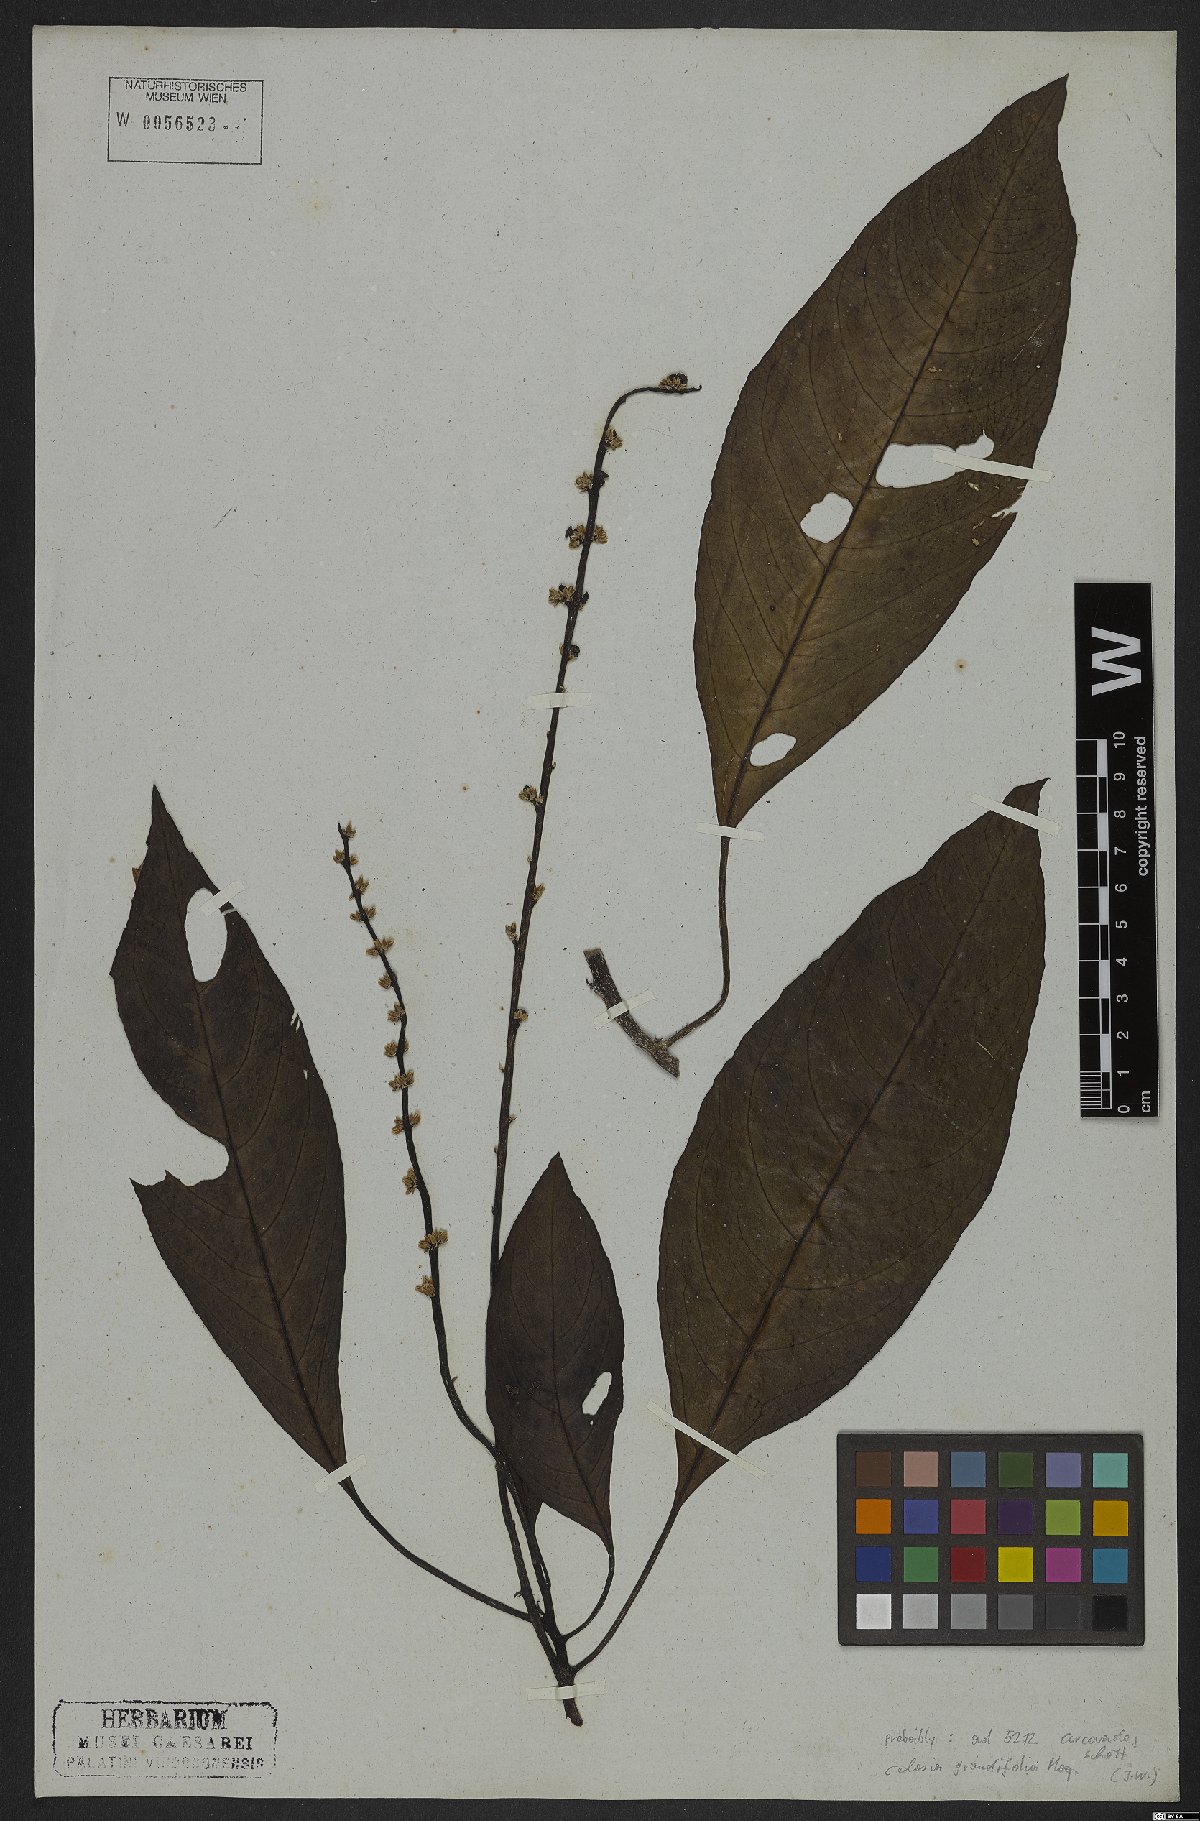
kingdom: Plantae
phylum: Tracheophyta
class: Magnoliopsida
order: Caryophyllales
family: Amaranthaceae
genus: Celosia
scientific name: Celosia grandifolia
